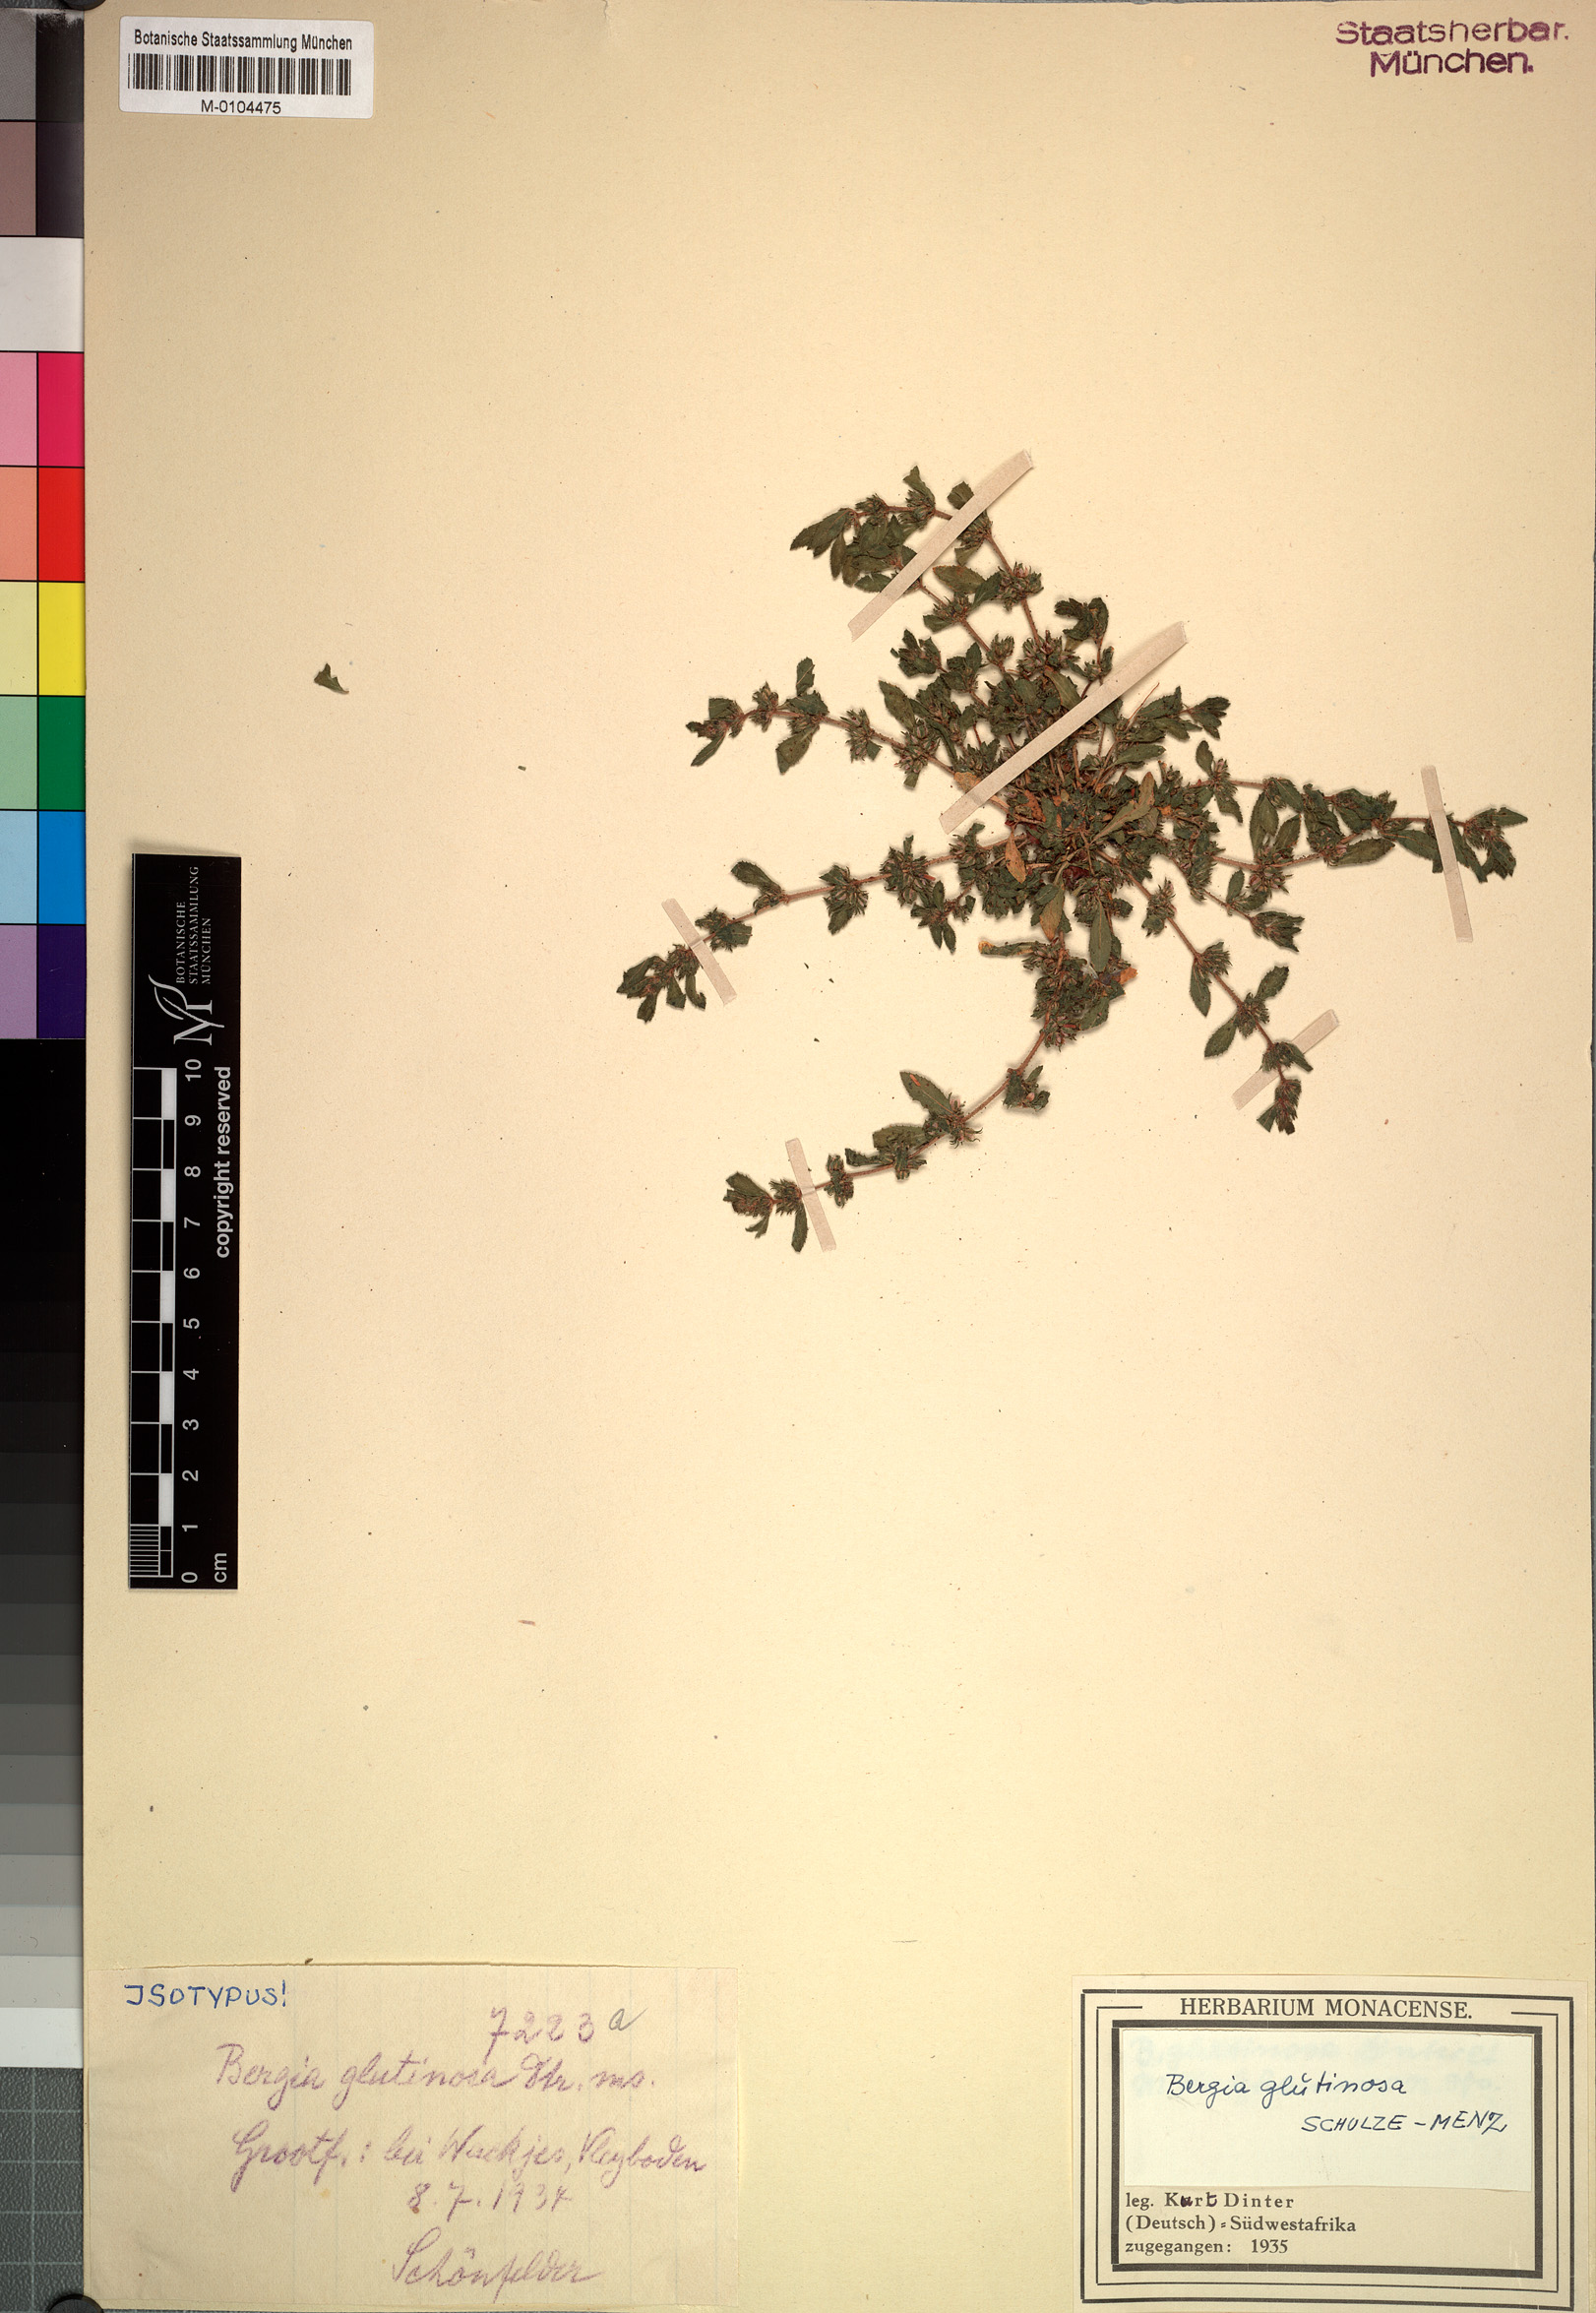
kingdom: Plantae
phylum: Tracheophyta
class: Magnoliopsida
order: Malpighiales
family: Elatinaceae
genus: Bergia
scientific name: Bergia glutinosa
